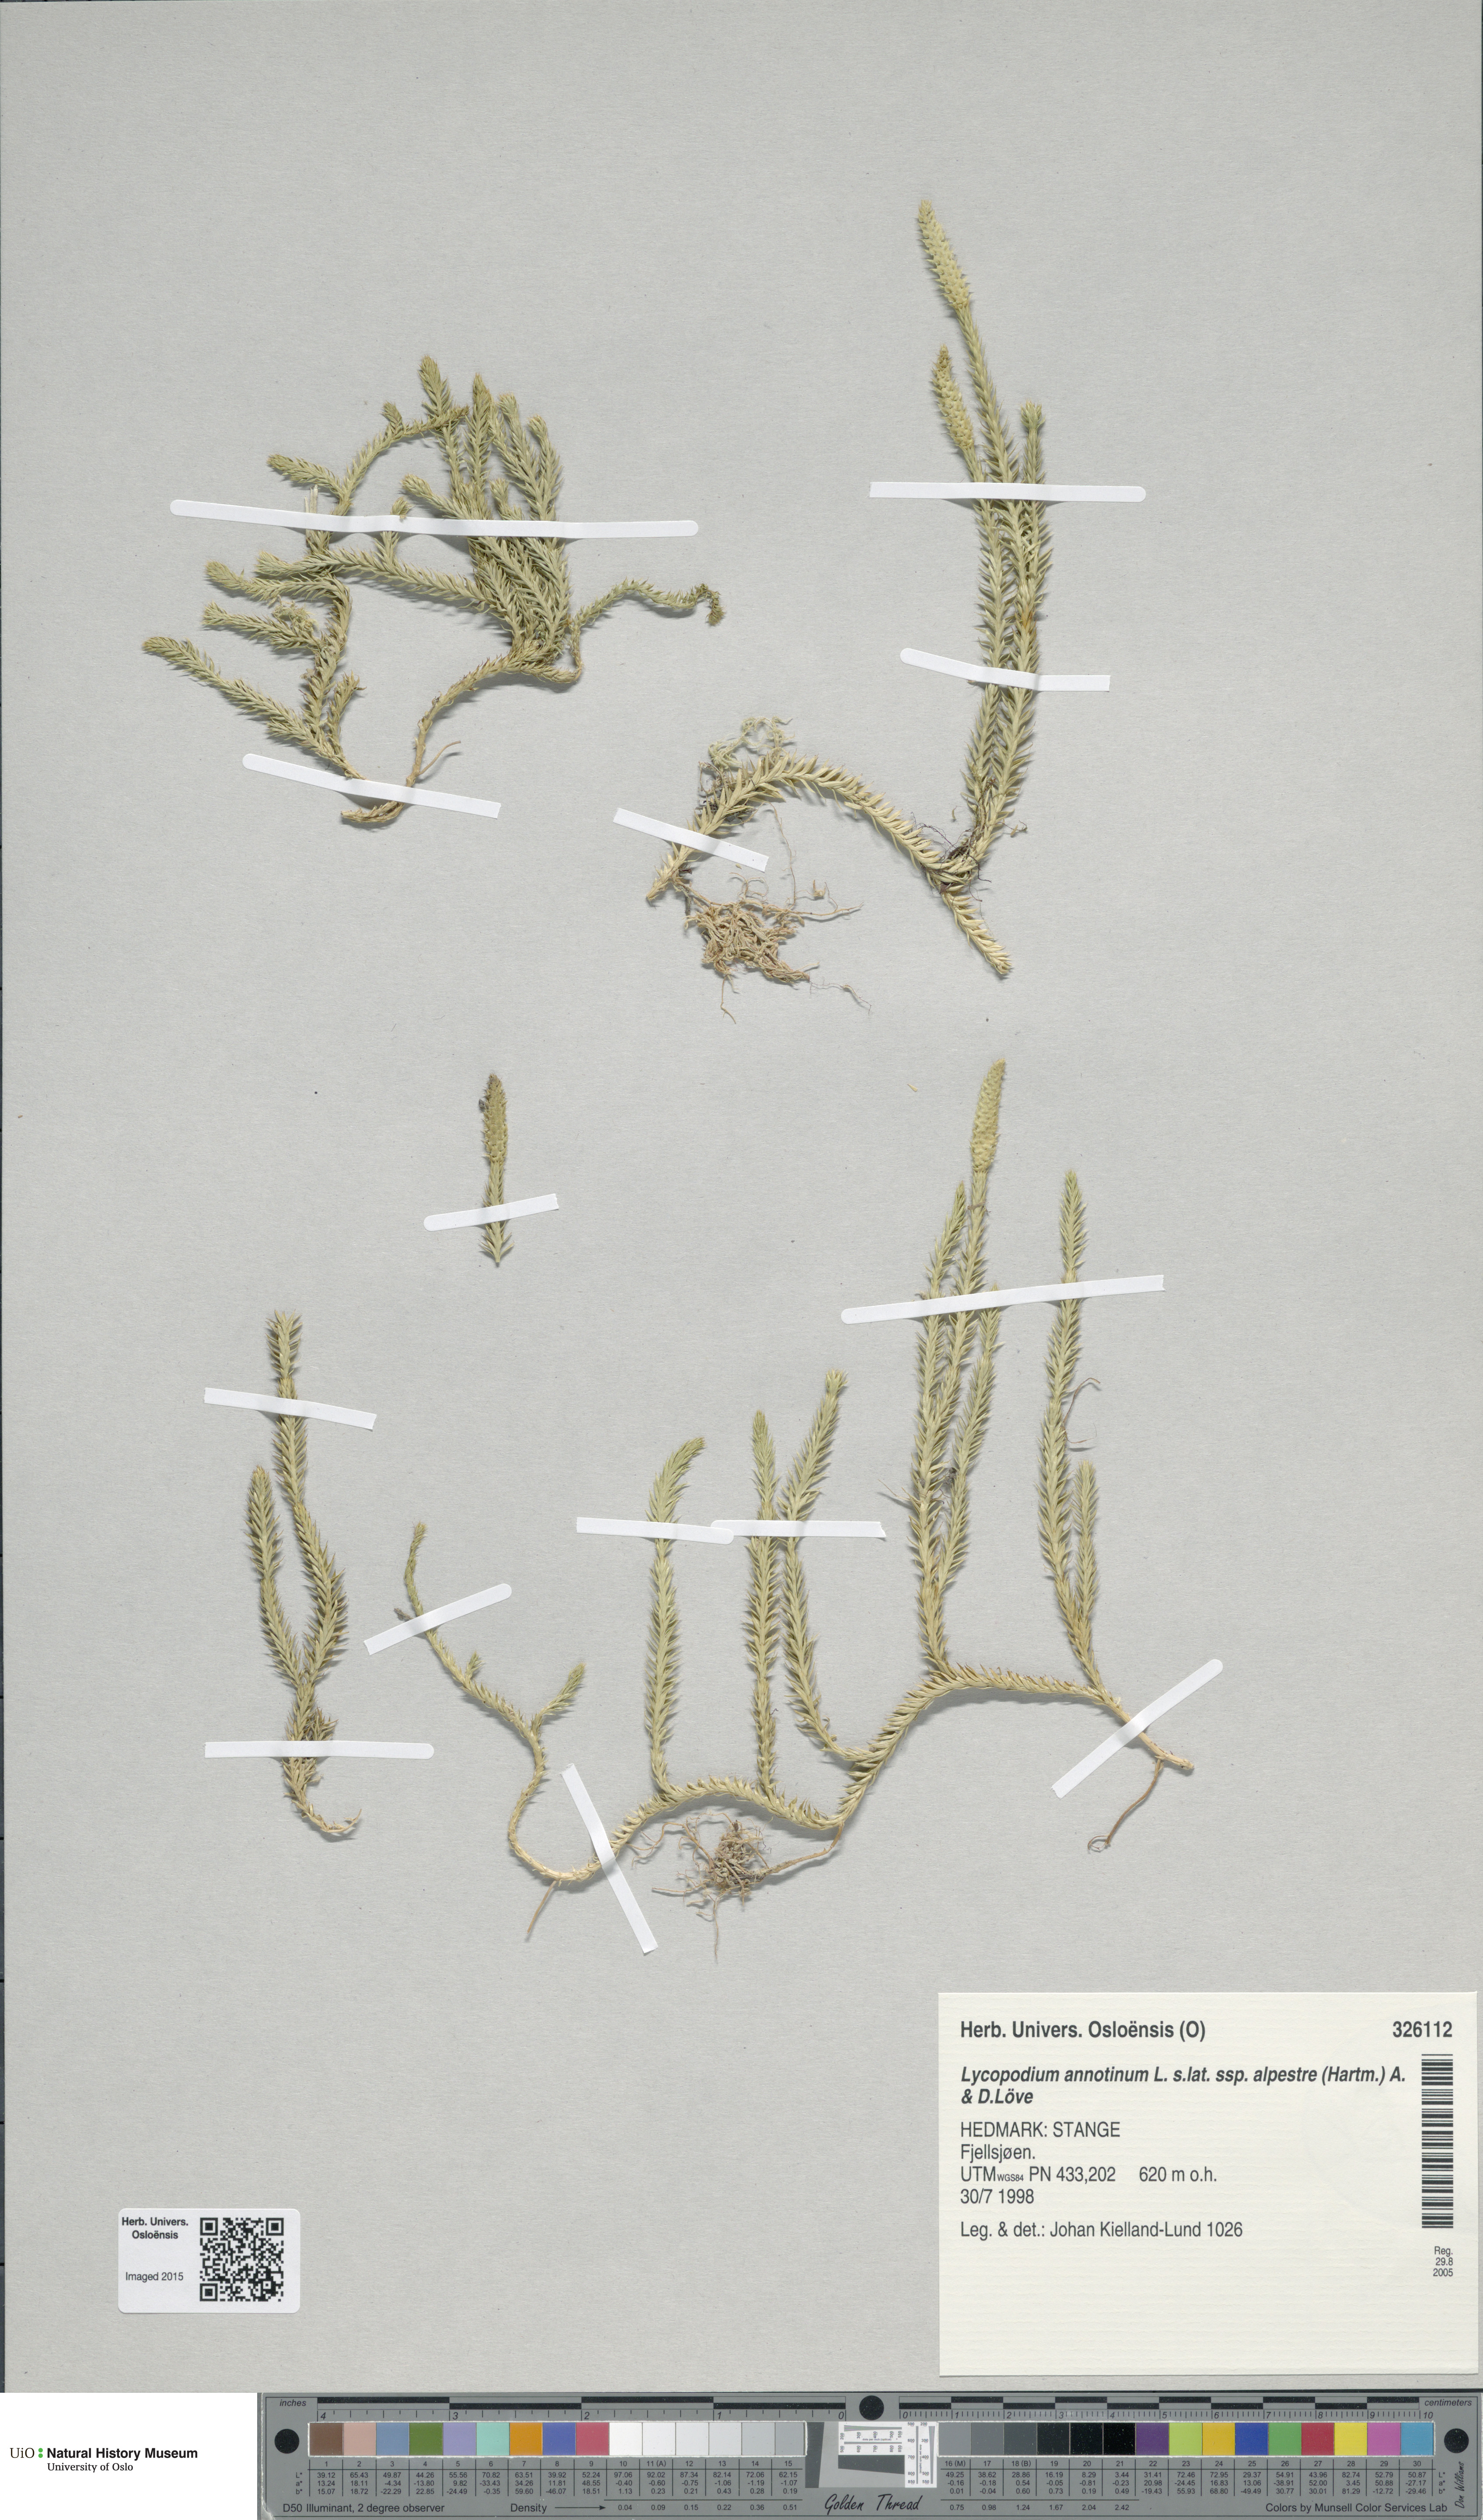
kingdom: Plantae
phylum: Tracheophyta
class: Lycopodiopsida
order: Lycopodiales
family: Lycopodiaceae
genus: Spinulum
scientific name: Spinulum annotinum
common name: Interrupted club-moss
